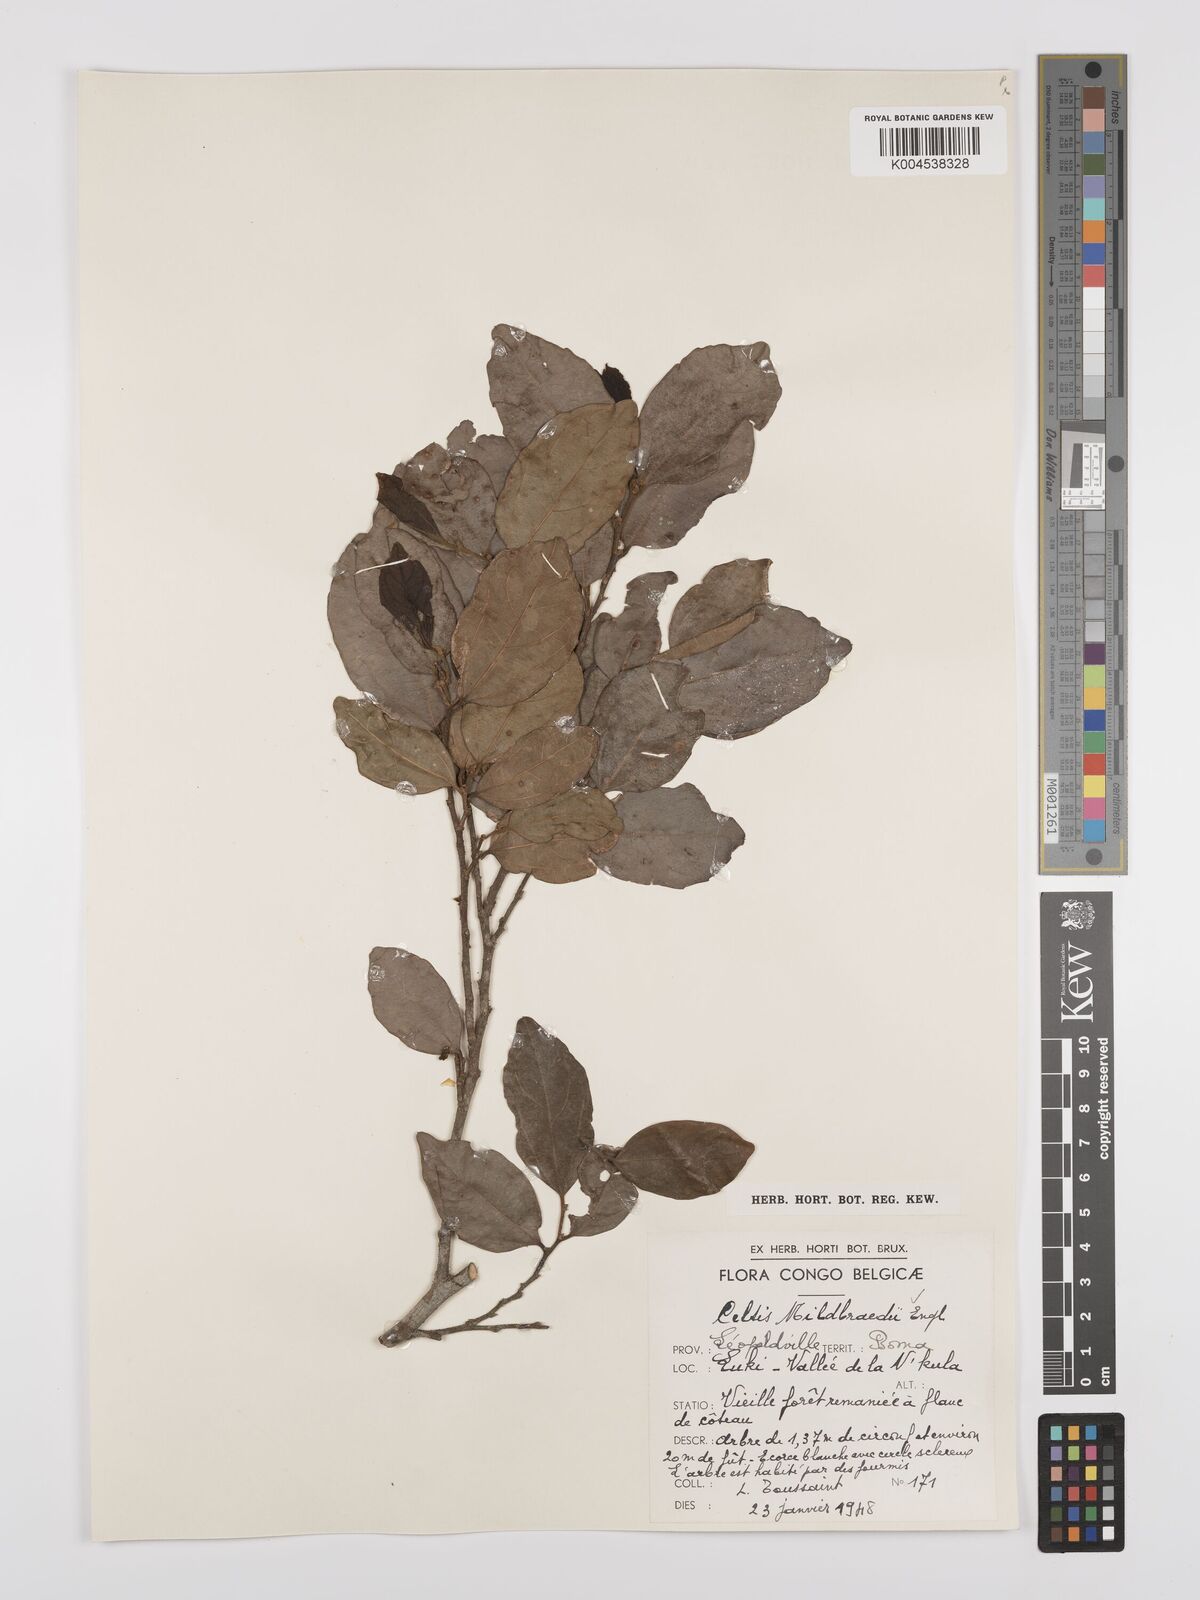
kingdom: Plantae
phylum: Tracheophyta
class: Magnoliopsida
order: Rosales
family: Cannabaceae
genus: Celtis
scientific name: Celtis mildbraedii
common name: Red-fruited stinkwood
